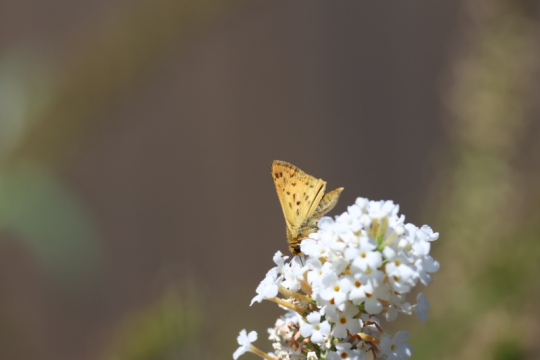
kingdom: Animalia
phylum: Arthropoda
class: Insecta
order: Lepidoptera
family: Hesperiidae
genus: Hylephila
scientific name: Hylephila phyleus
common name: Fiery Skipper
